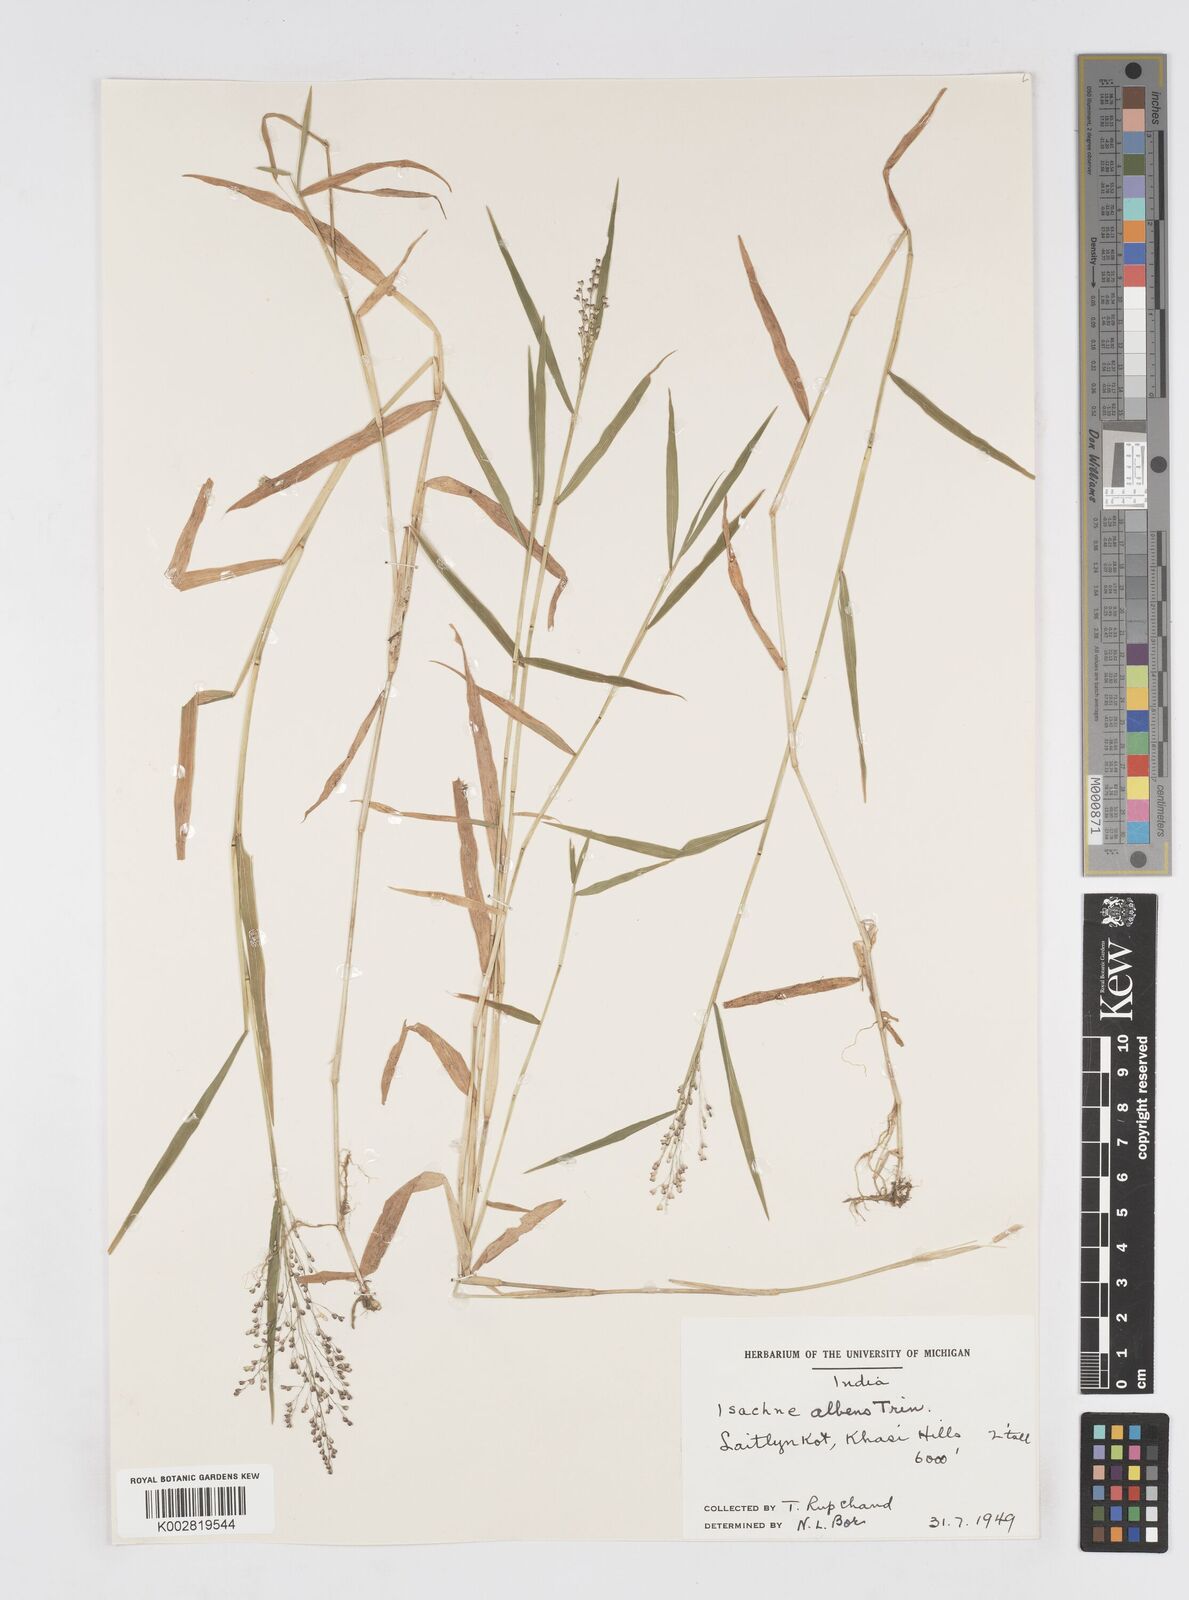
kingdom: Plantae
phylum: Tracheophyta
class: Liliopsida
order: Poales
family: Poaceae
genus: Isachne
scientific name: Isachne albens
